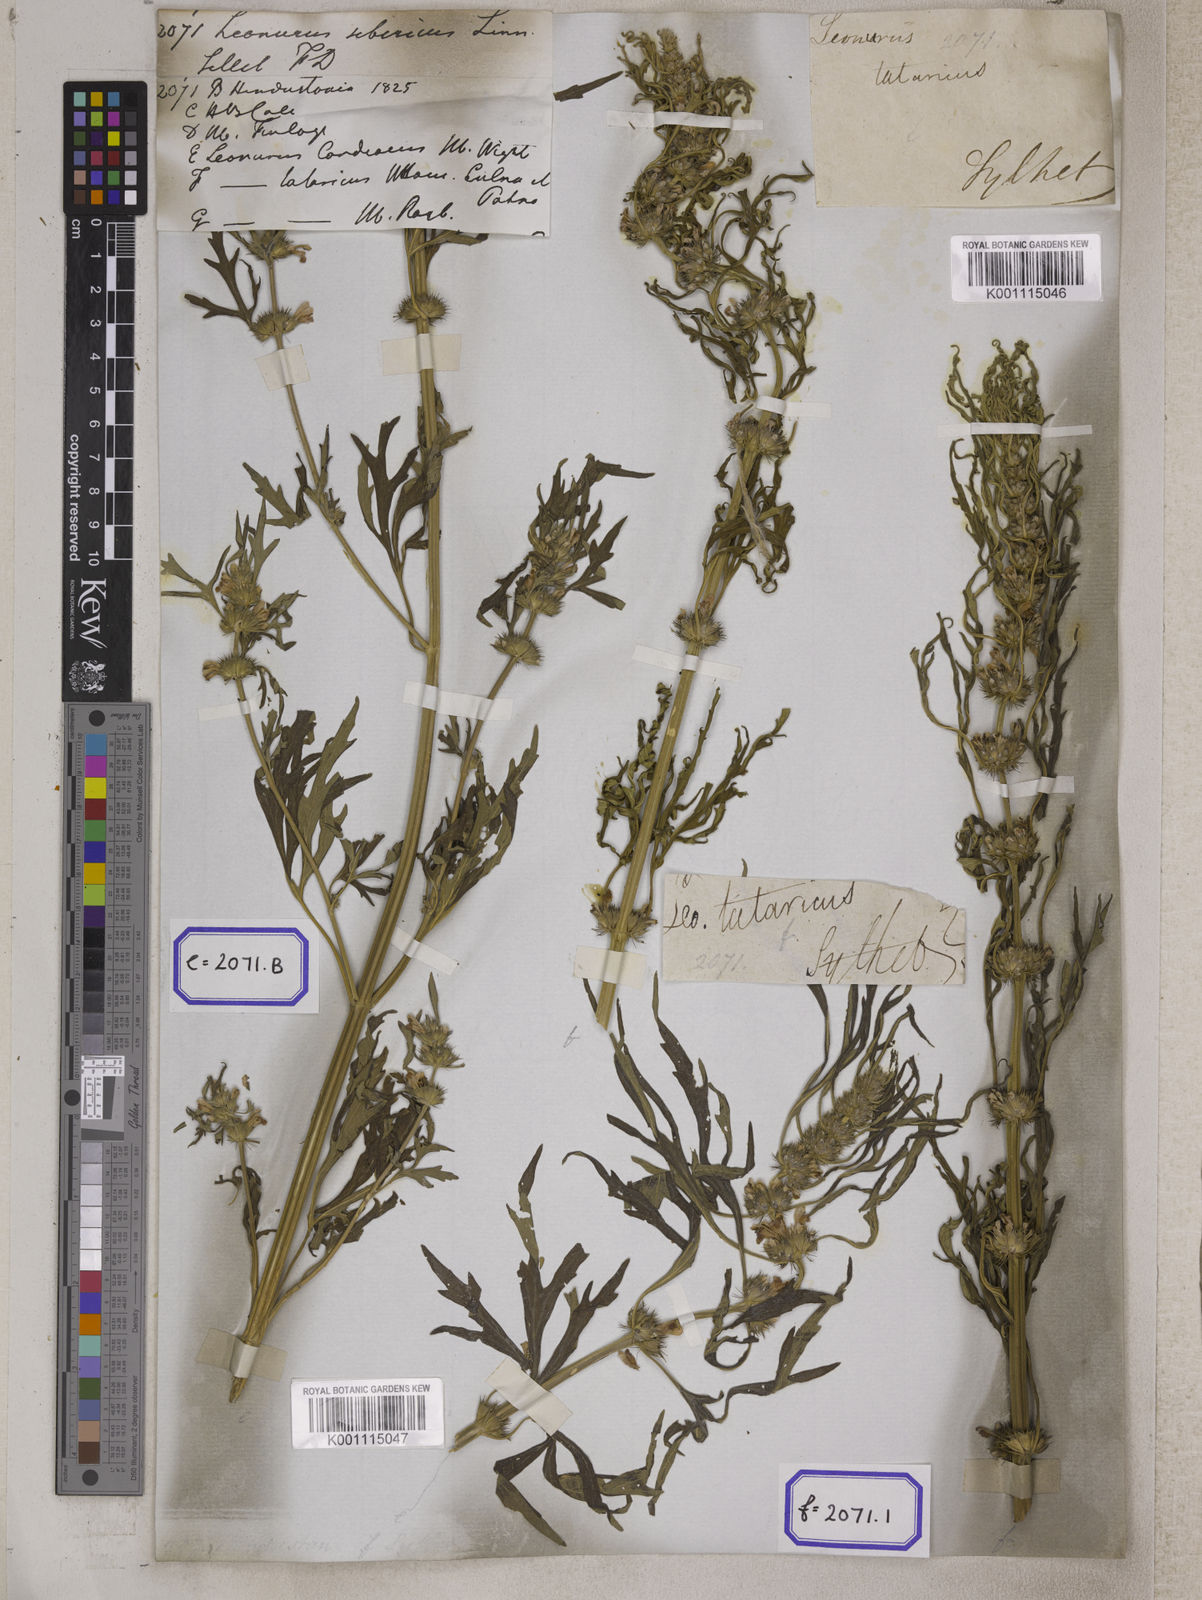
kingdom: Plantae
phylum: Tracheophyta
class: Magnoliopsida
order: Lamiales
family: Lamiaceae
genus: Leonurus
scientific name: Leonurus sibiricus
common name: Honeyweed
